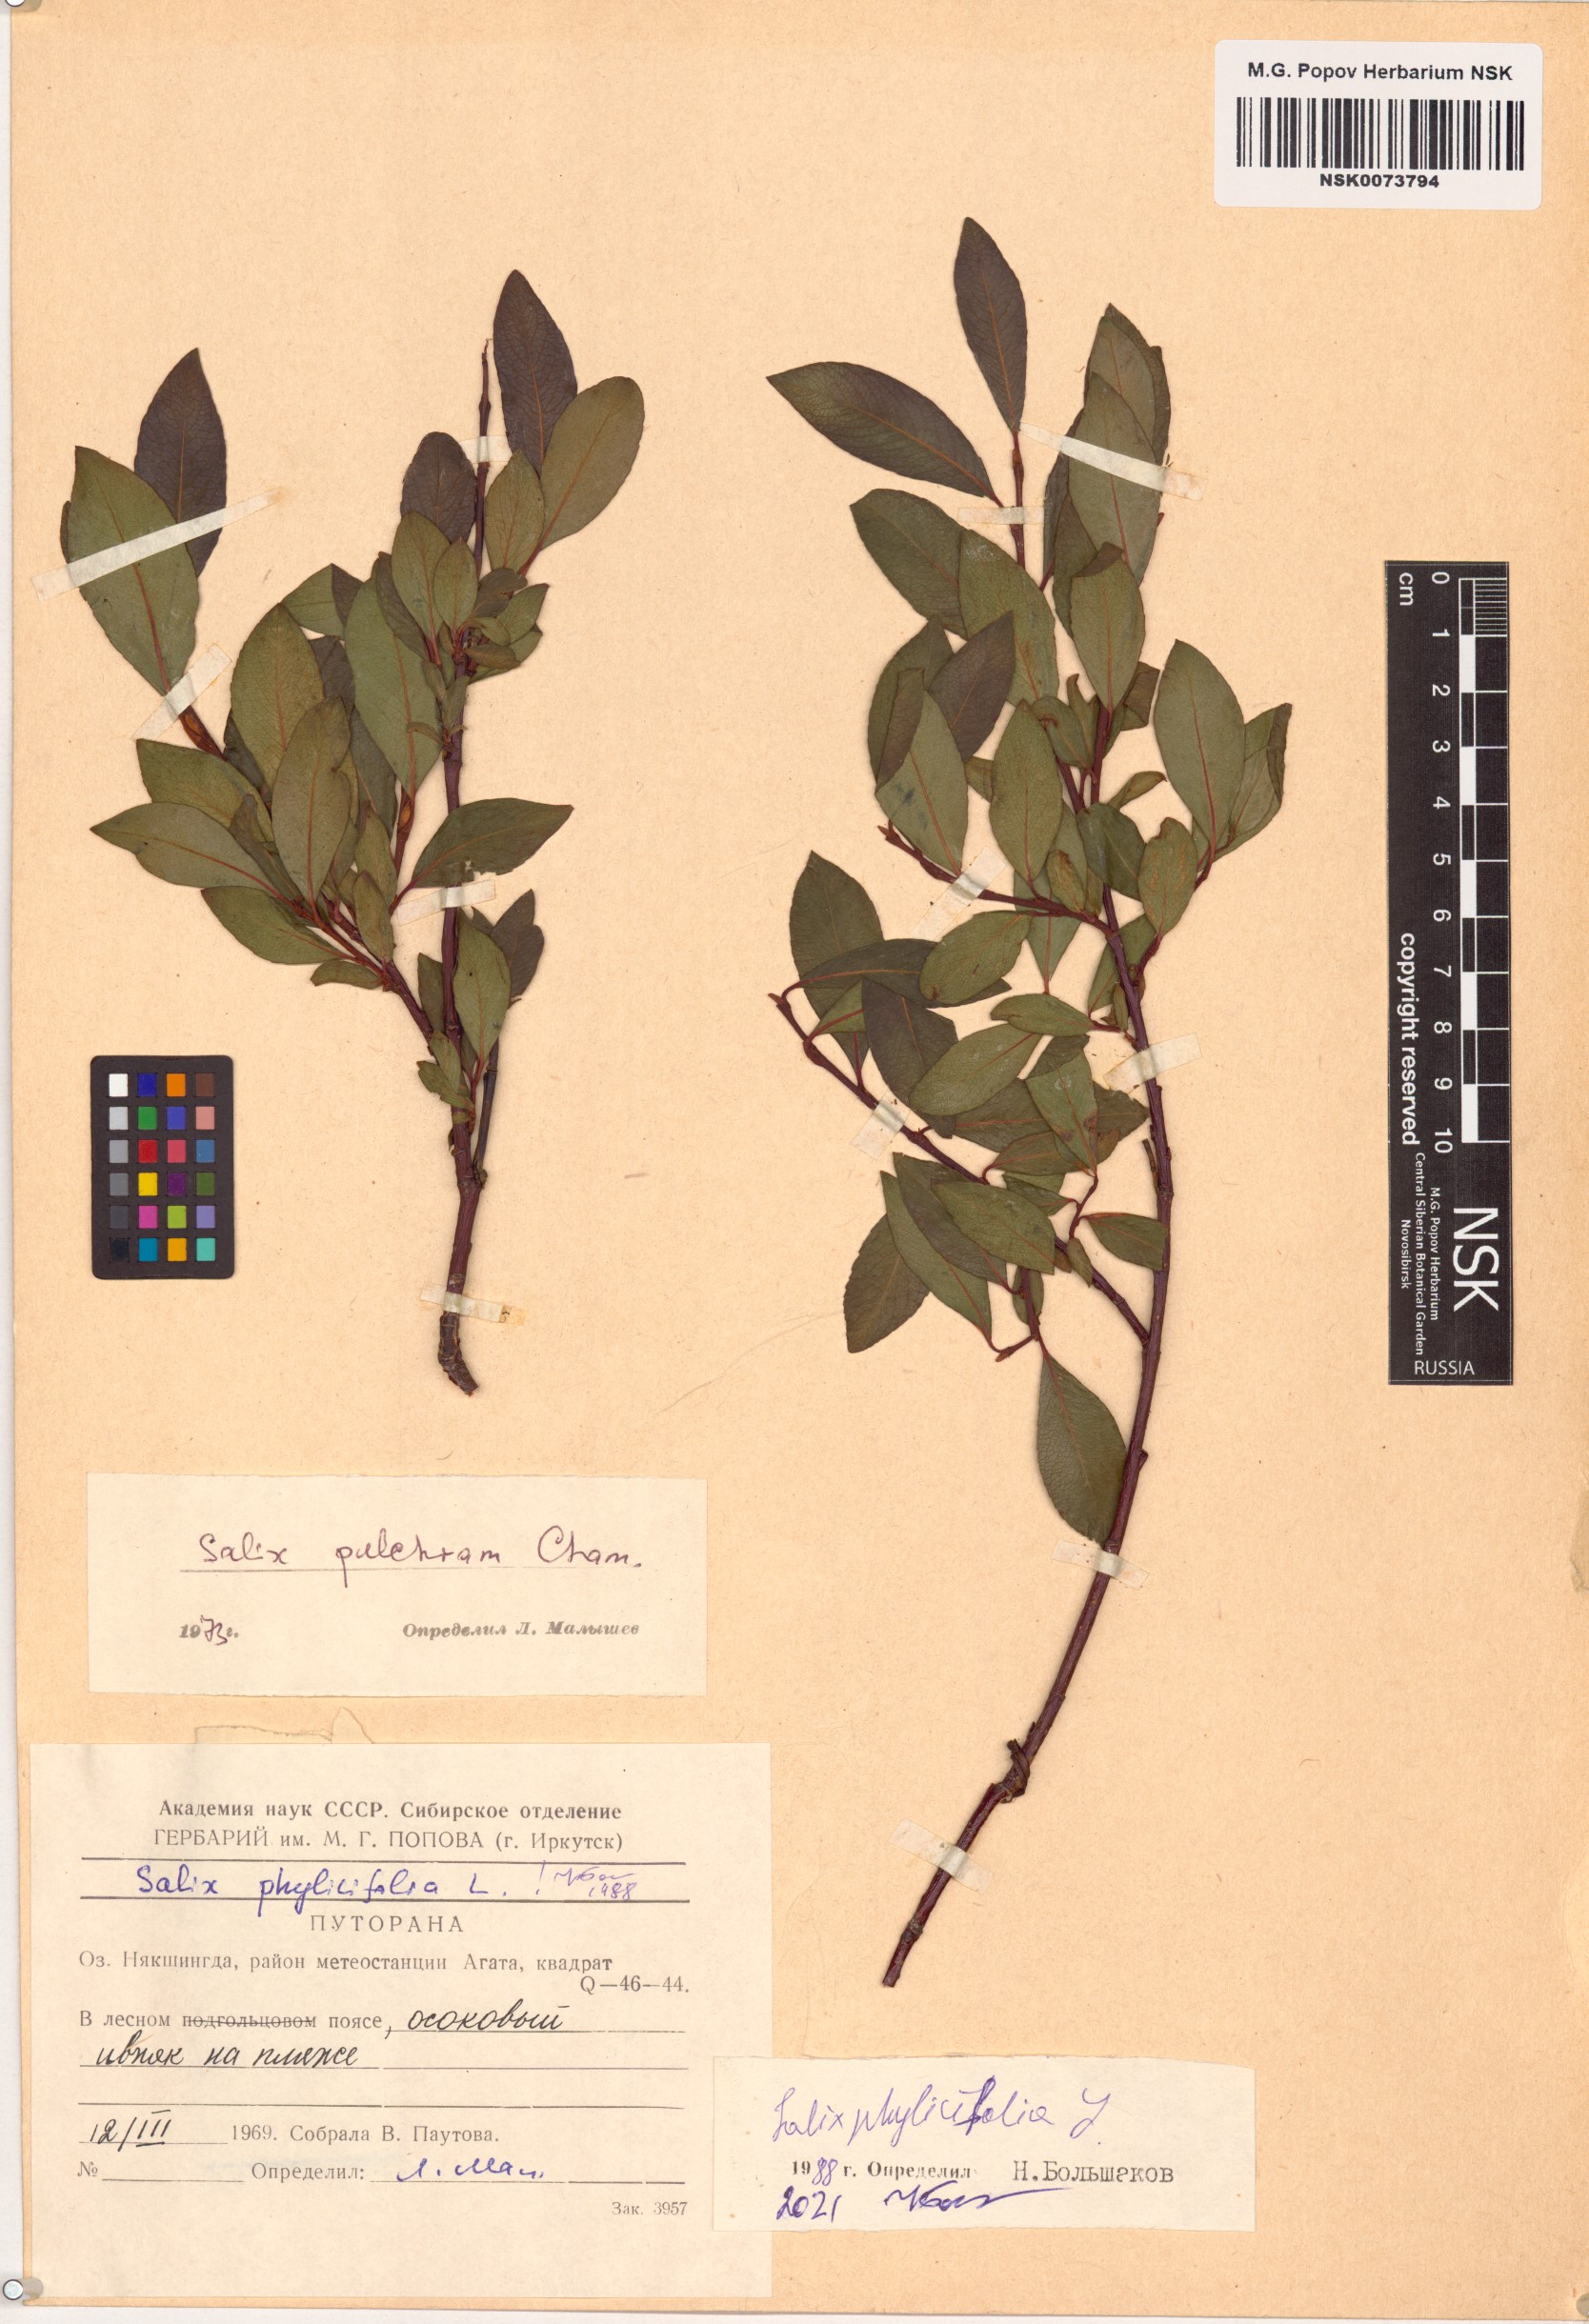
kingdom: Plantae
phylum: Tracheophyta
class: Magnoliopsida
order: Malpighiales
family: Salicaceae
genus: Salix
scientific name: Salix phylicifolia
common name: Tea-leaved willow
